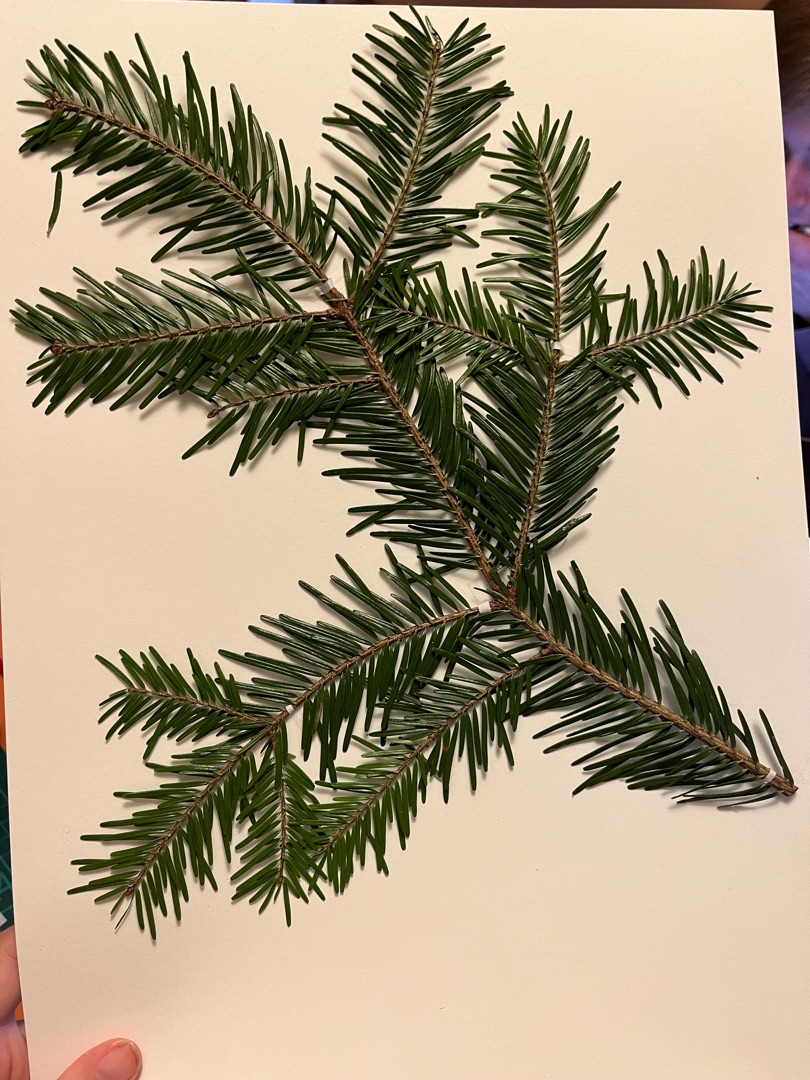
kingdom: Plantae
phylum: Tracheophyta
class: Pinopsida
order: Pinales
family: Pinaceae
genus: Abies
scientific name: Abies alba
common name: Almindelig ædelgran
